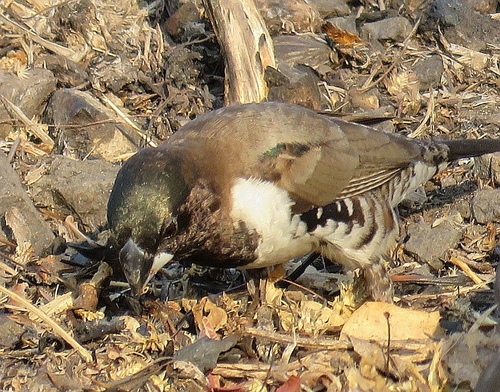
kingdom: Animalia
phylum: Chordata
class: Aves
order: Passeriformes
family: Estrildidae
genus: Lonchura
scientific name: Lonchura cucullata
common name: Bronze mannikin
